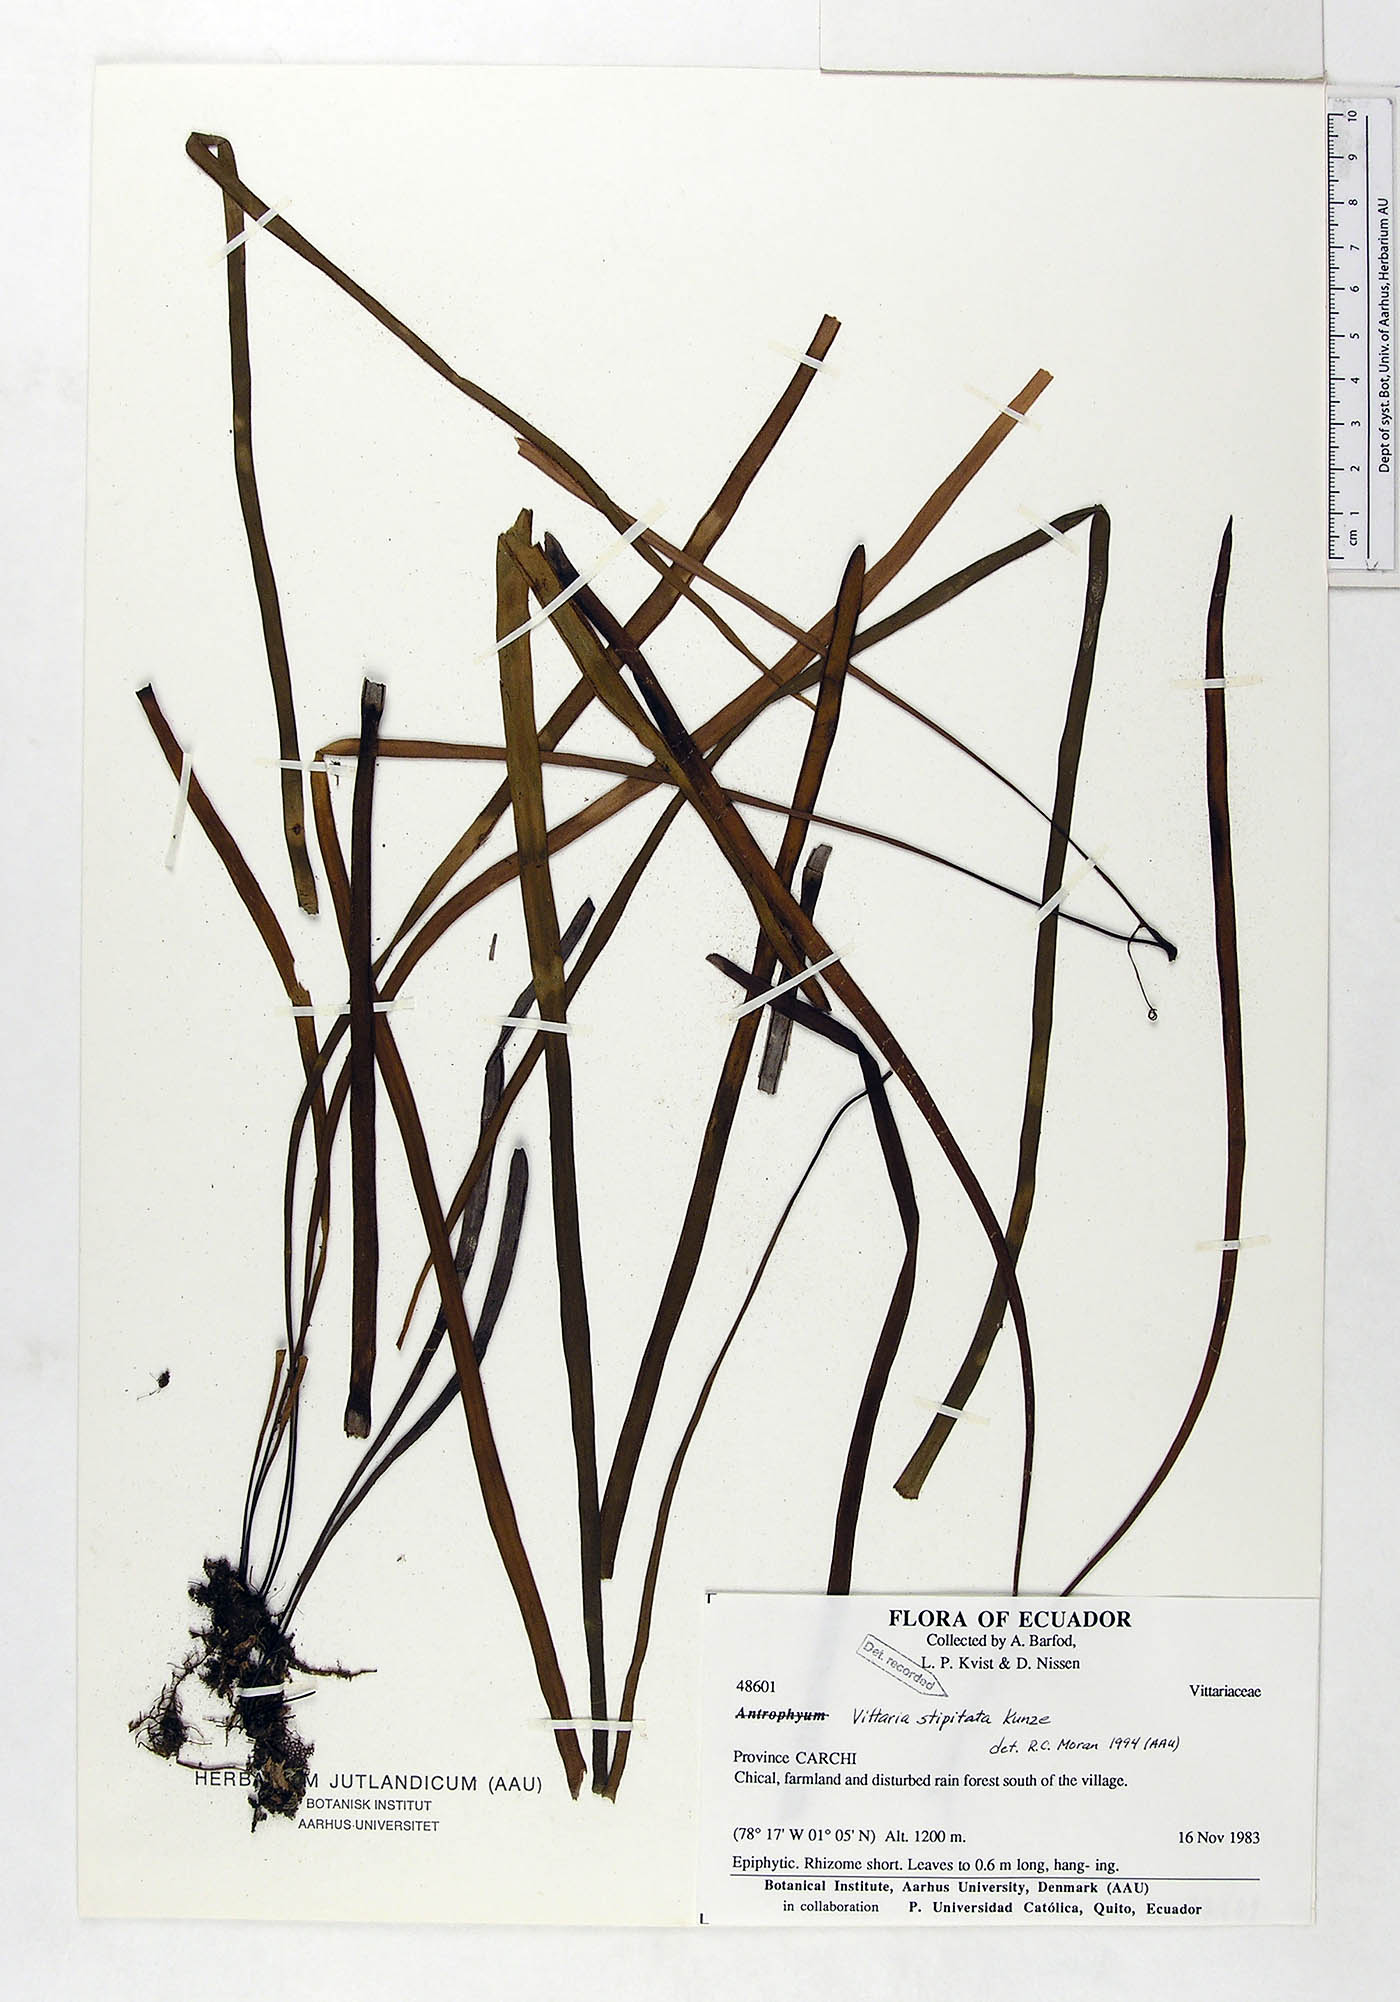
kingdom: Plantae
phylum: Tracheophyta
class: Polypodiopsida
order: Polypodiales
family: Pteridaceae
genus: Radiovittaria
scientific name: Radiovittaria stipitata
